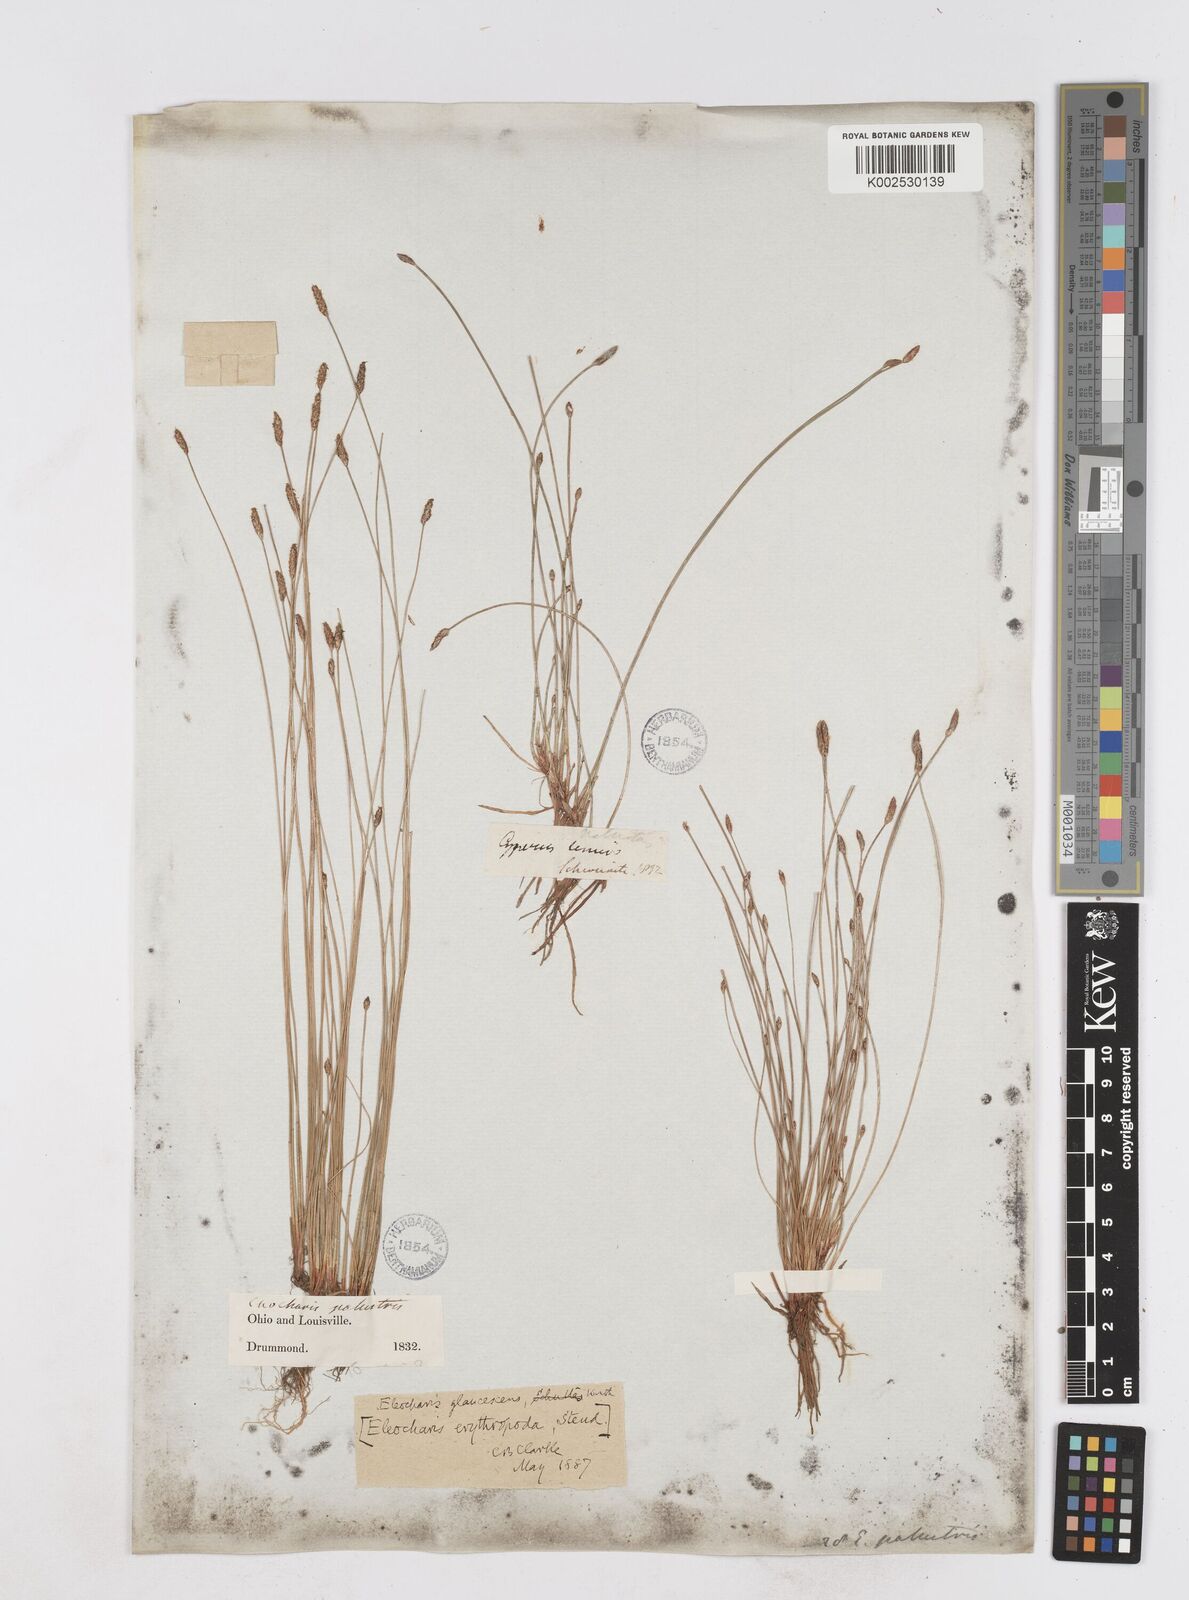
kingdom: Plantae
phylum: Tracheophyta
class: Liliopsida
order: Poales
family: Cyperaceae
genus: Eleocharis
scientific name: Eleocharis erythropoda
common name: Bald spikerush
